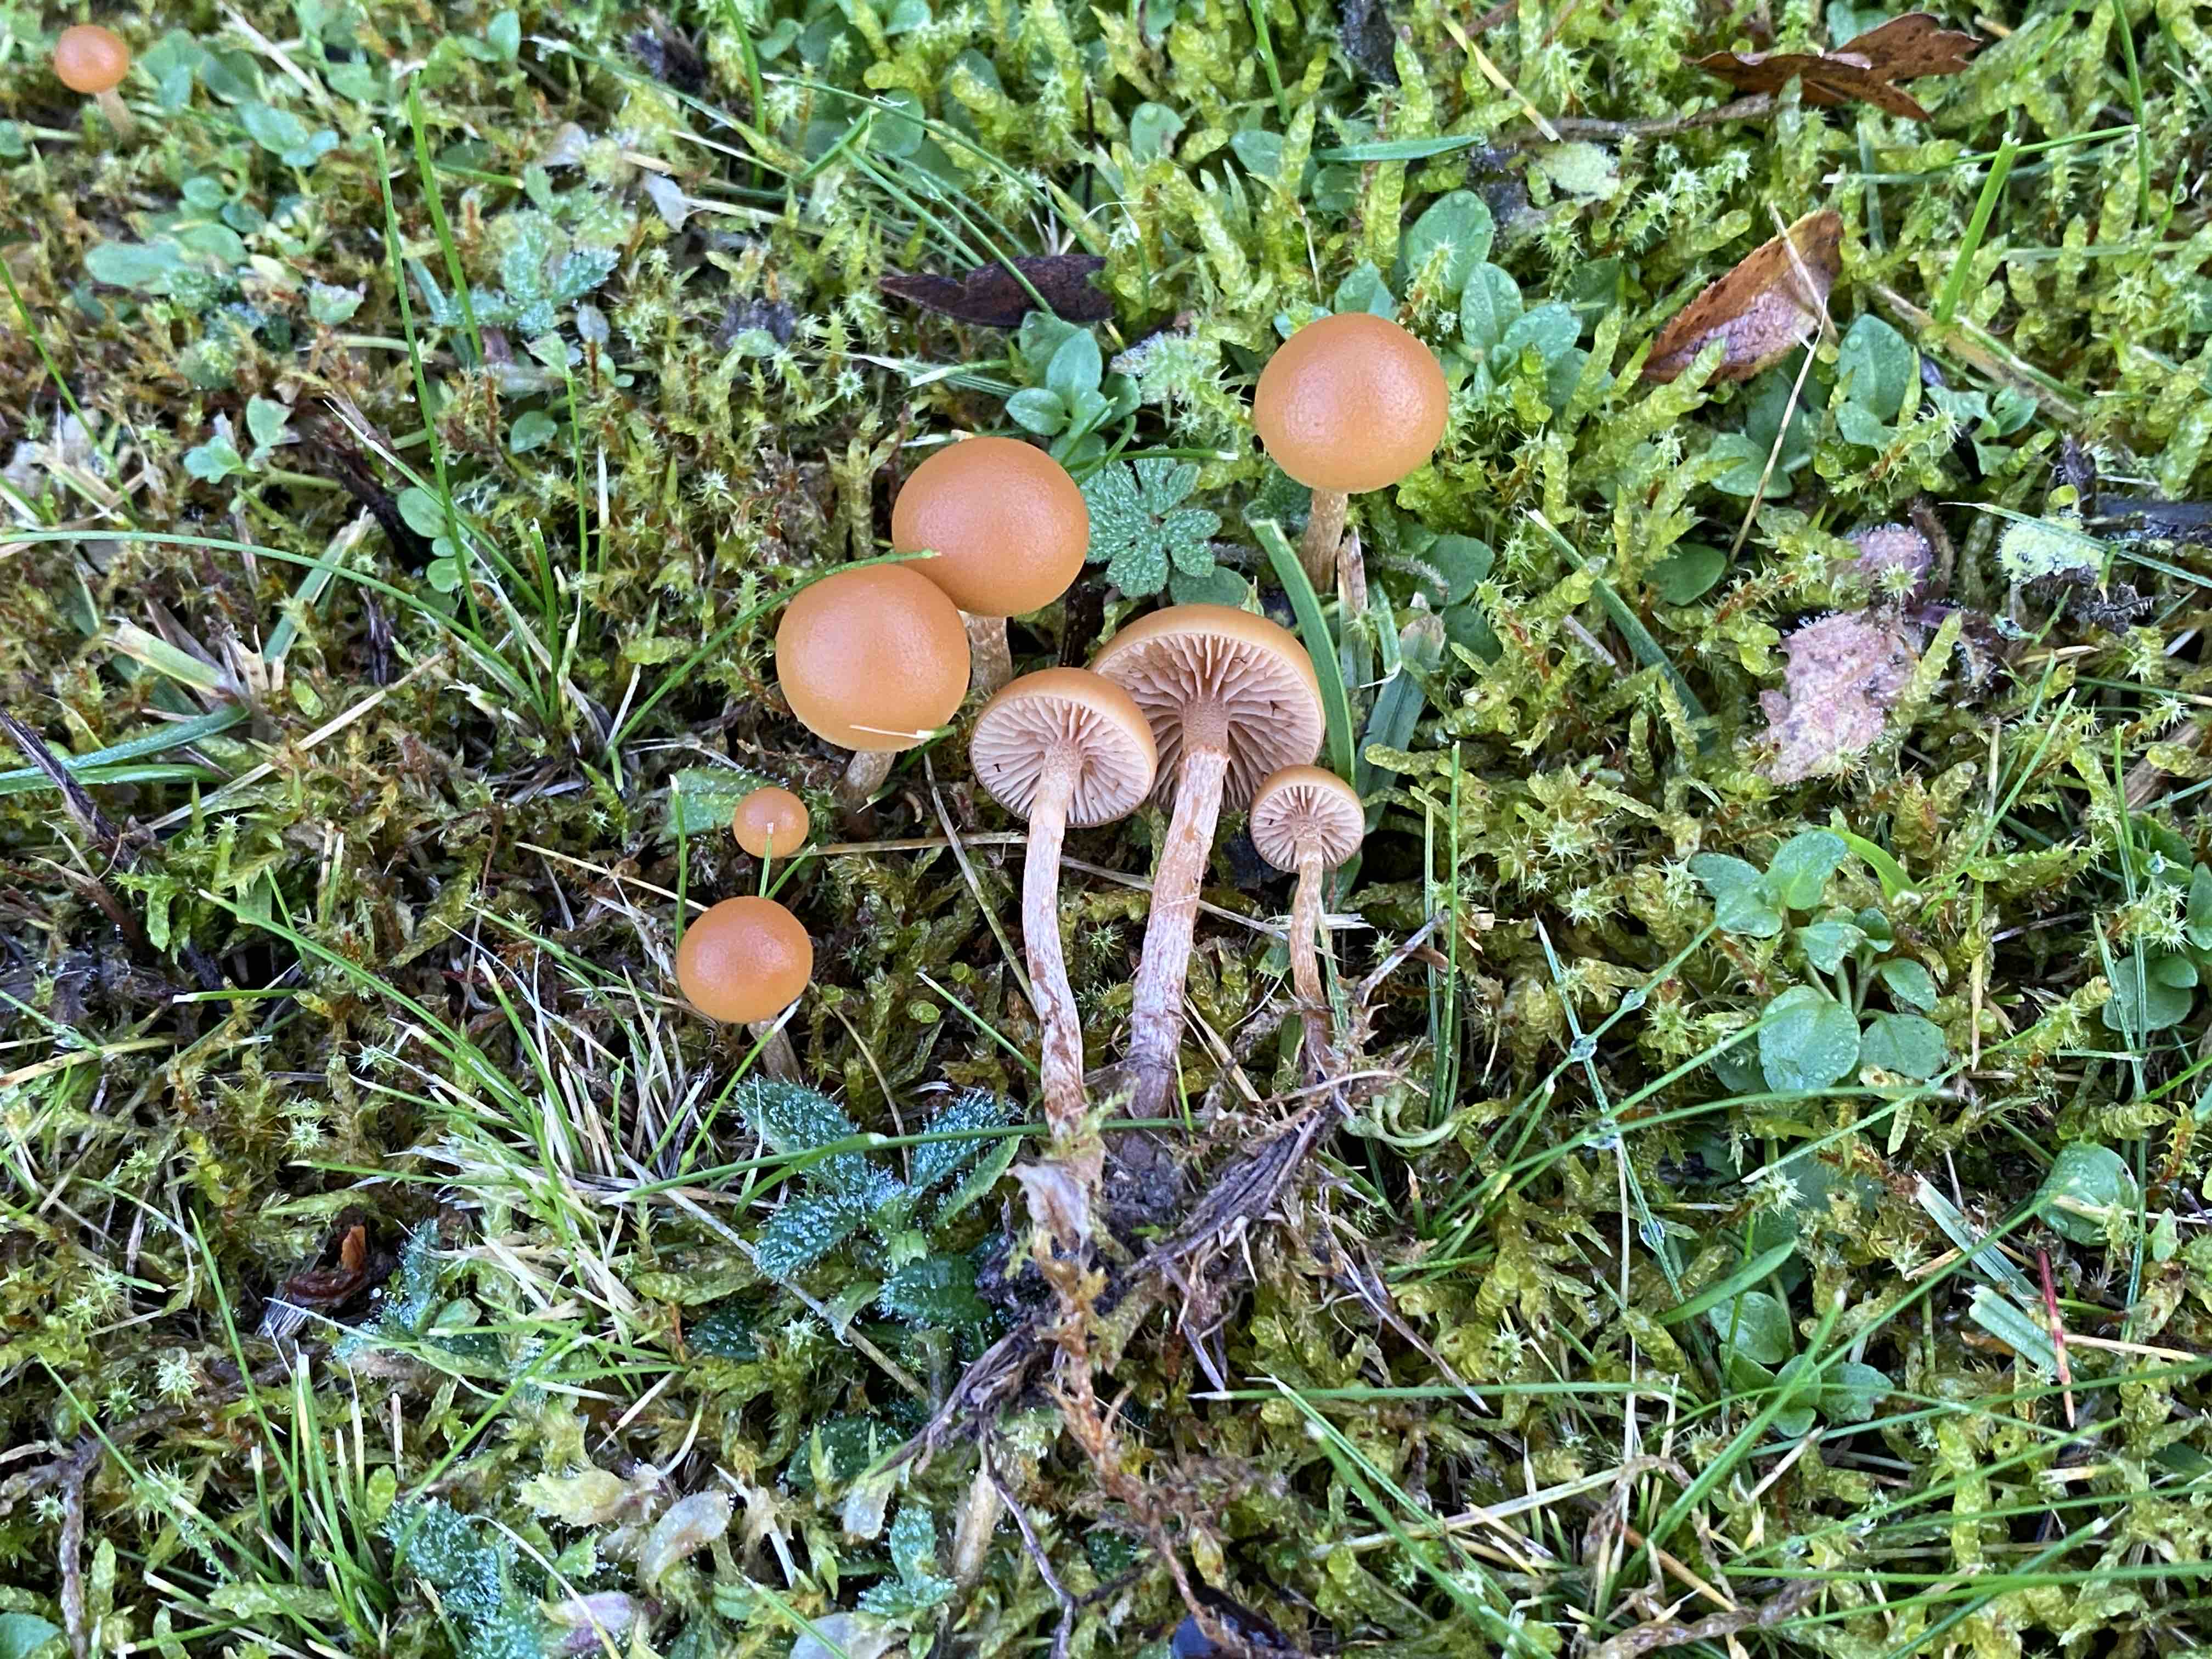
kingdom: Fungi
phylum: Basidiomycota
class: Agaricomycetes
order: Agaricales
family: Hymenogastraceae
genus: Galerina
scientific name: Galerina marginata
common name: randbæltet hjelmhat
